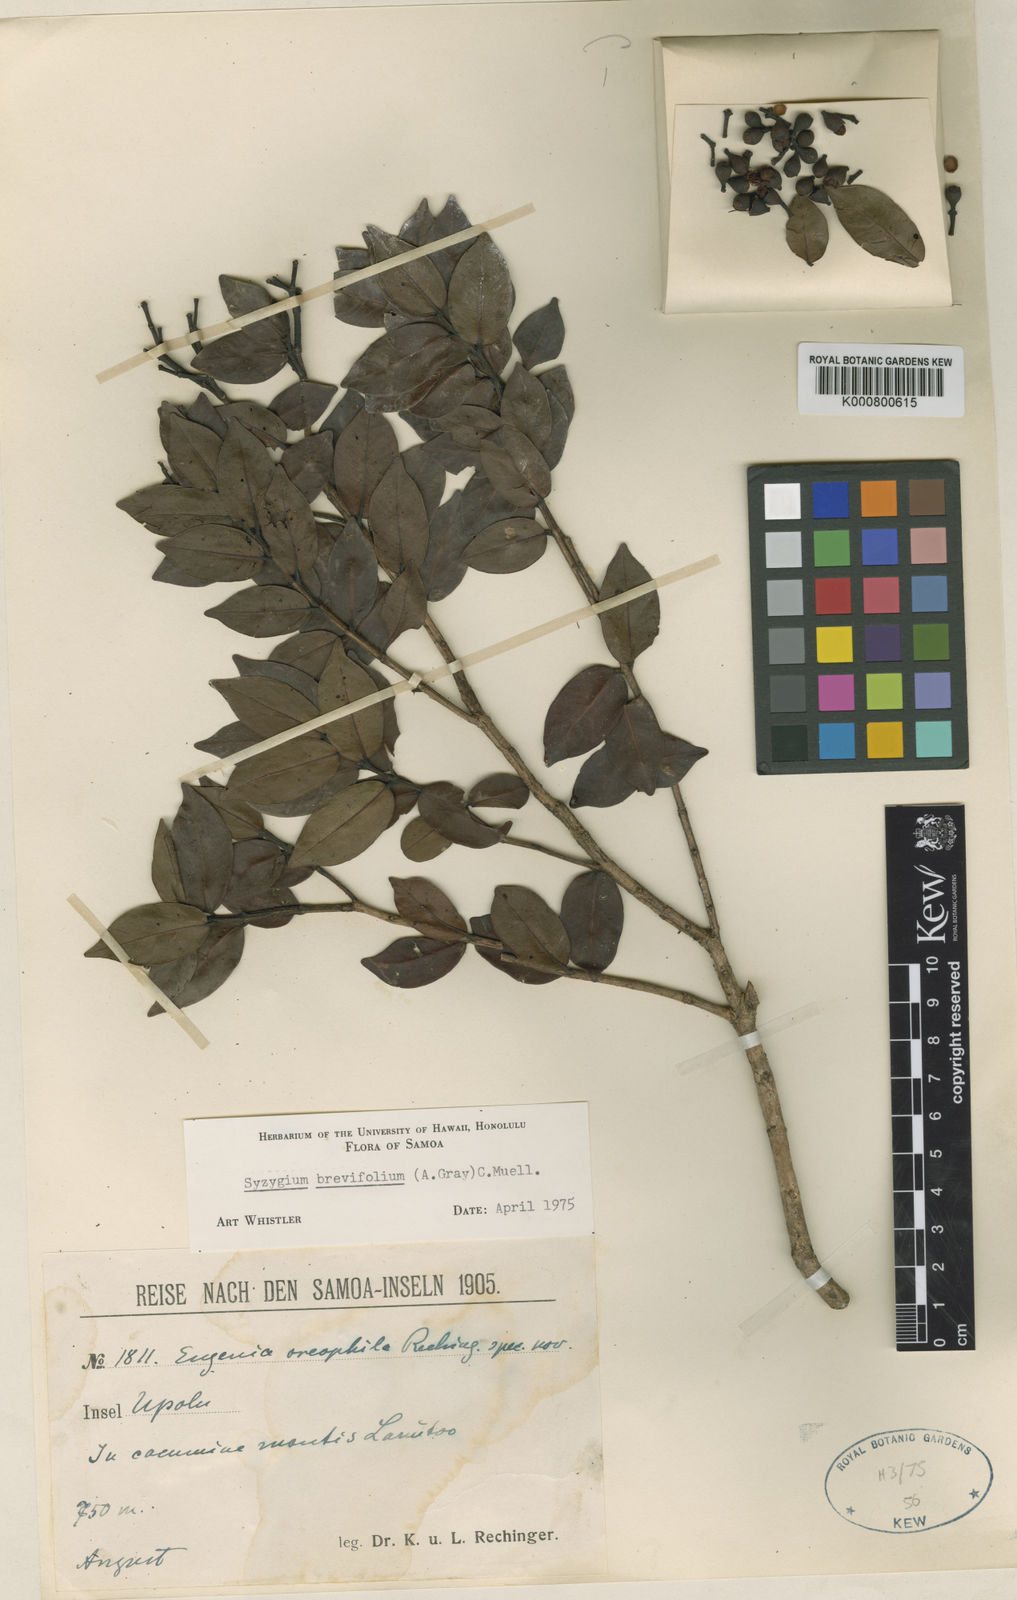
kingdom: Plantae
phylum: Tracheophyta
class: Magnoliopsida
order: Myrtales
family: Myrtaceae
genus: Syzygium
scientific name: Syzygium
